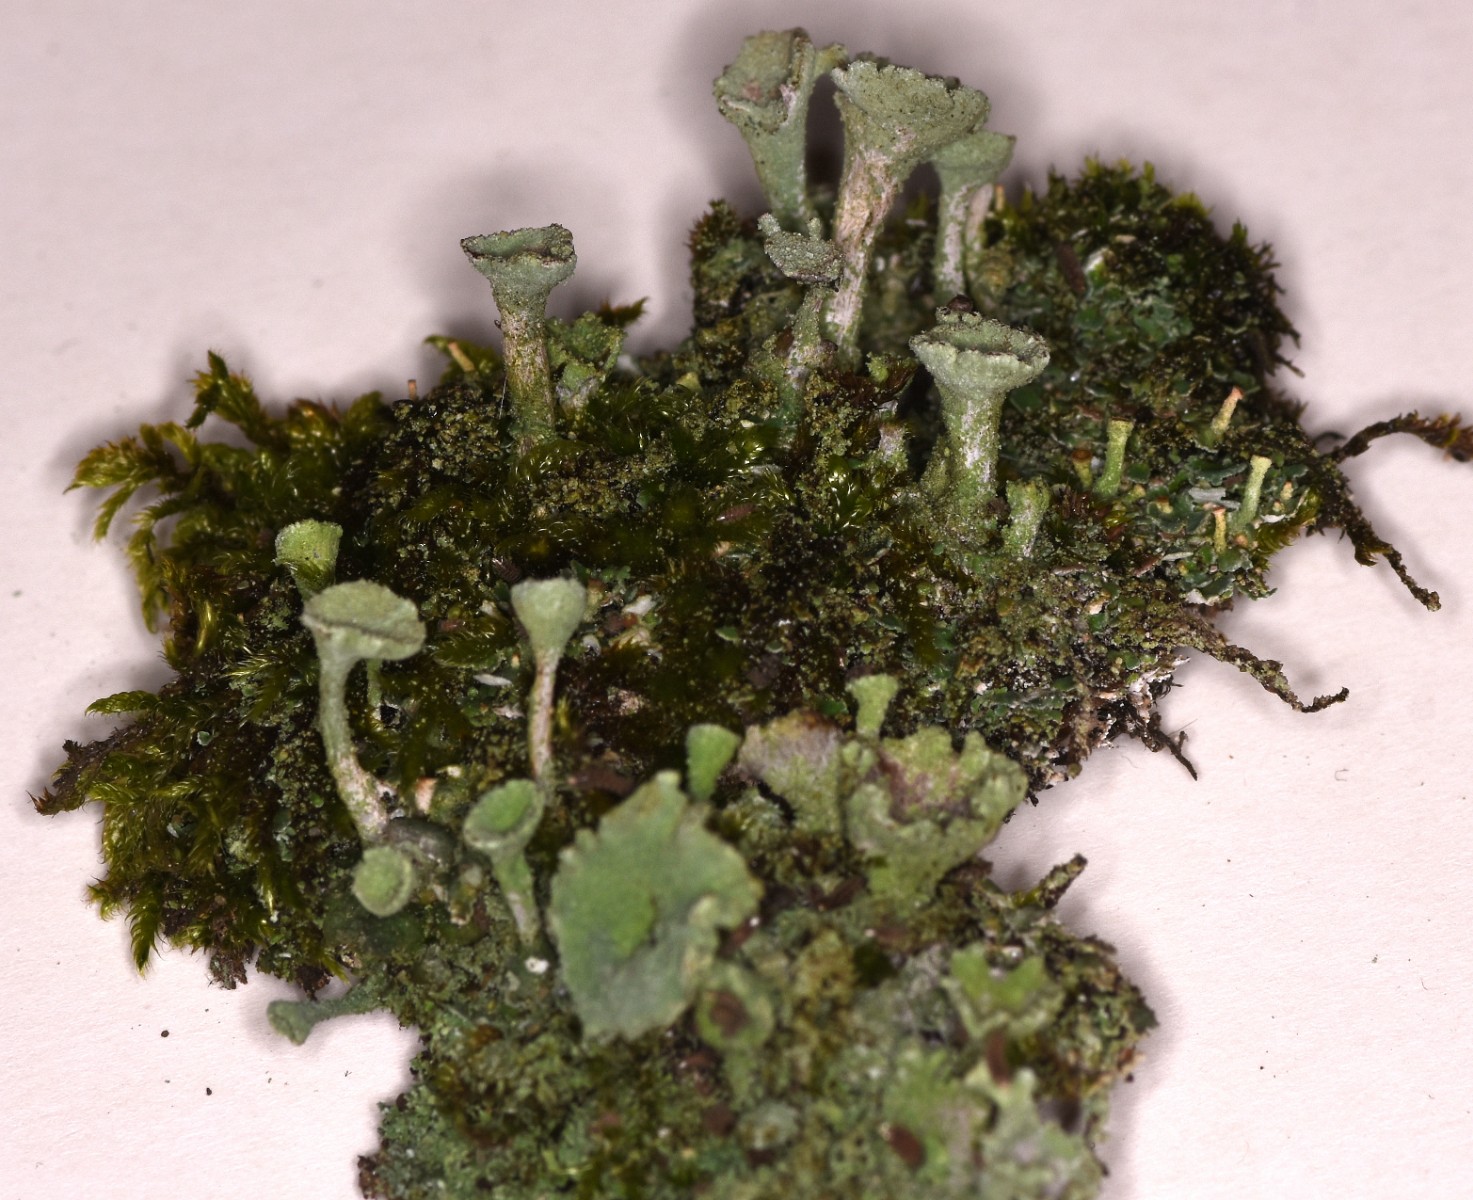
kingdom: Fungi
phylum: Ascomycota
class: Lecanoromycetes
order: Lecanorales
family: Cladoniaceae
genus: Cladonia
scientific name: Cladonia
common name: brungrøn bægerlav
